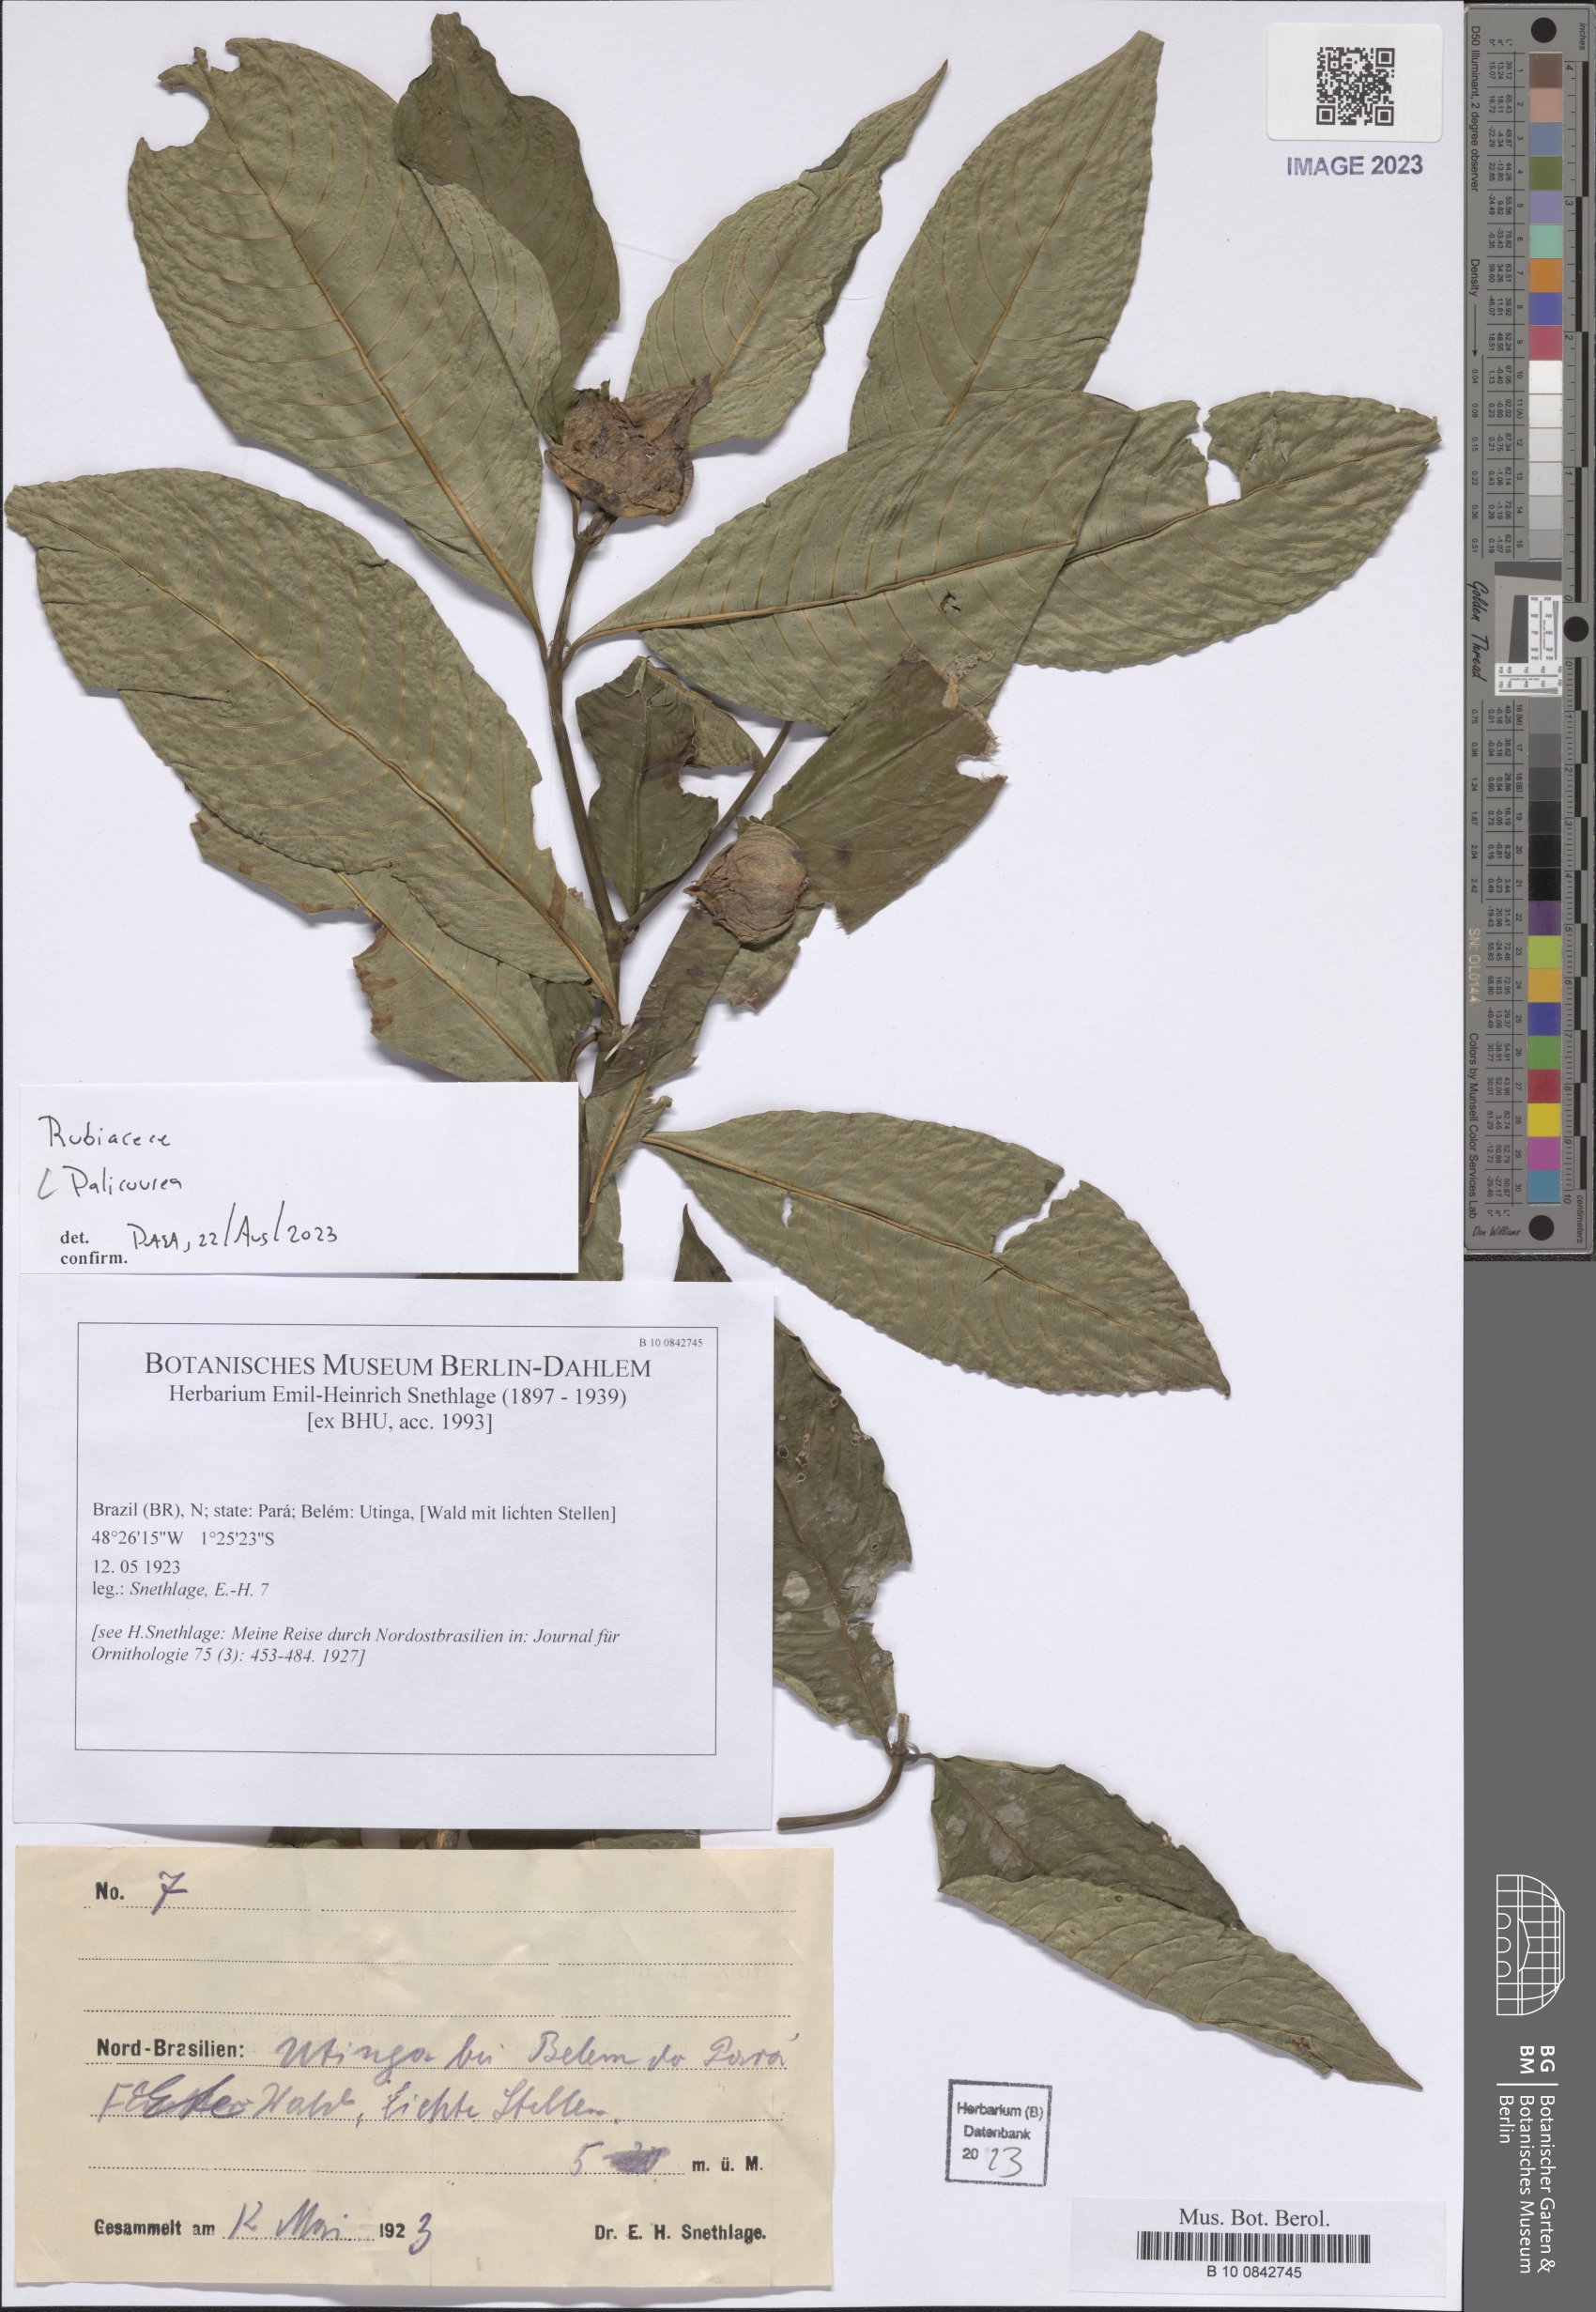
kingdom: Plantae
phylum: Tracheophyta
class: Magnoliopsida
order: Gentianales
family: Rubiaceae
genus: Palicourea
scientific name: Palicourea
